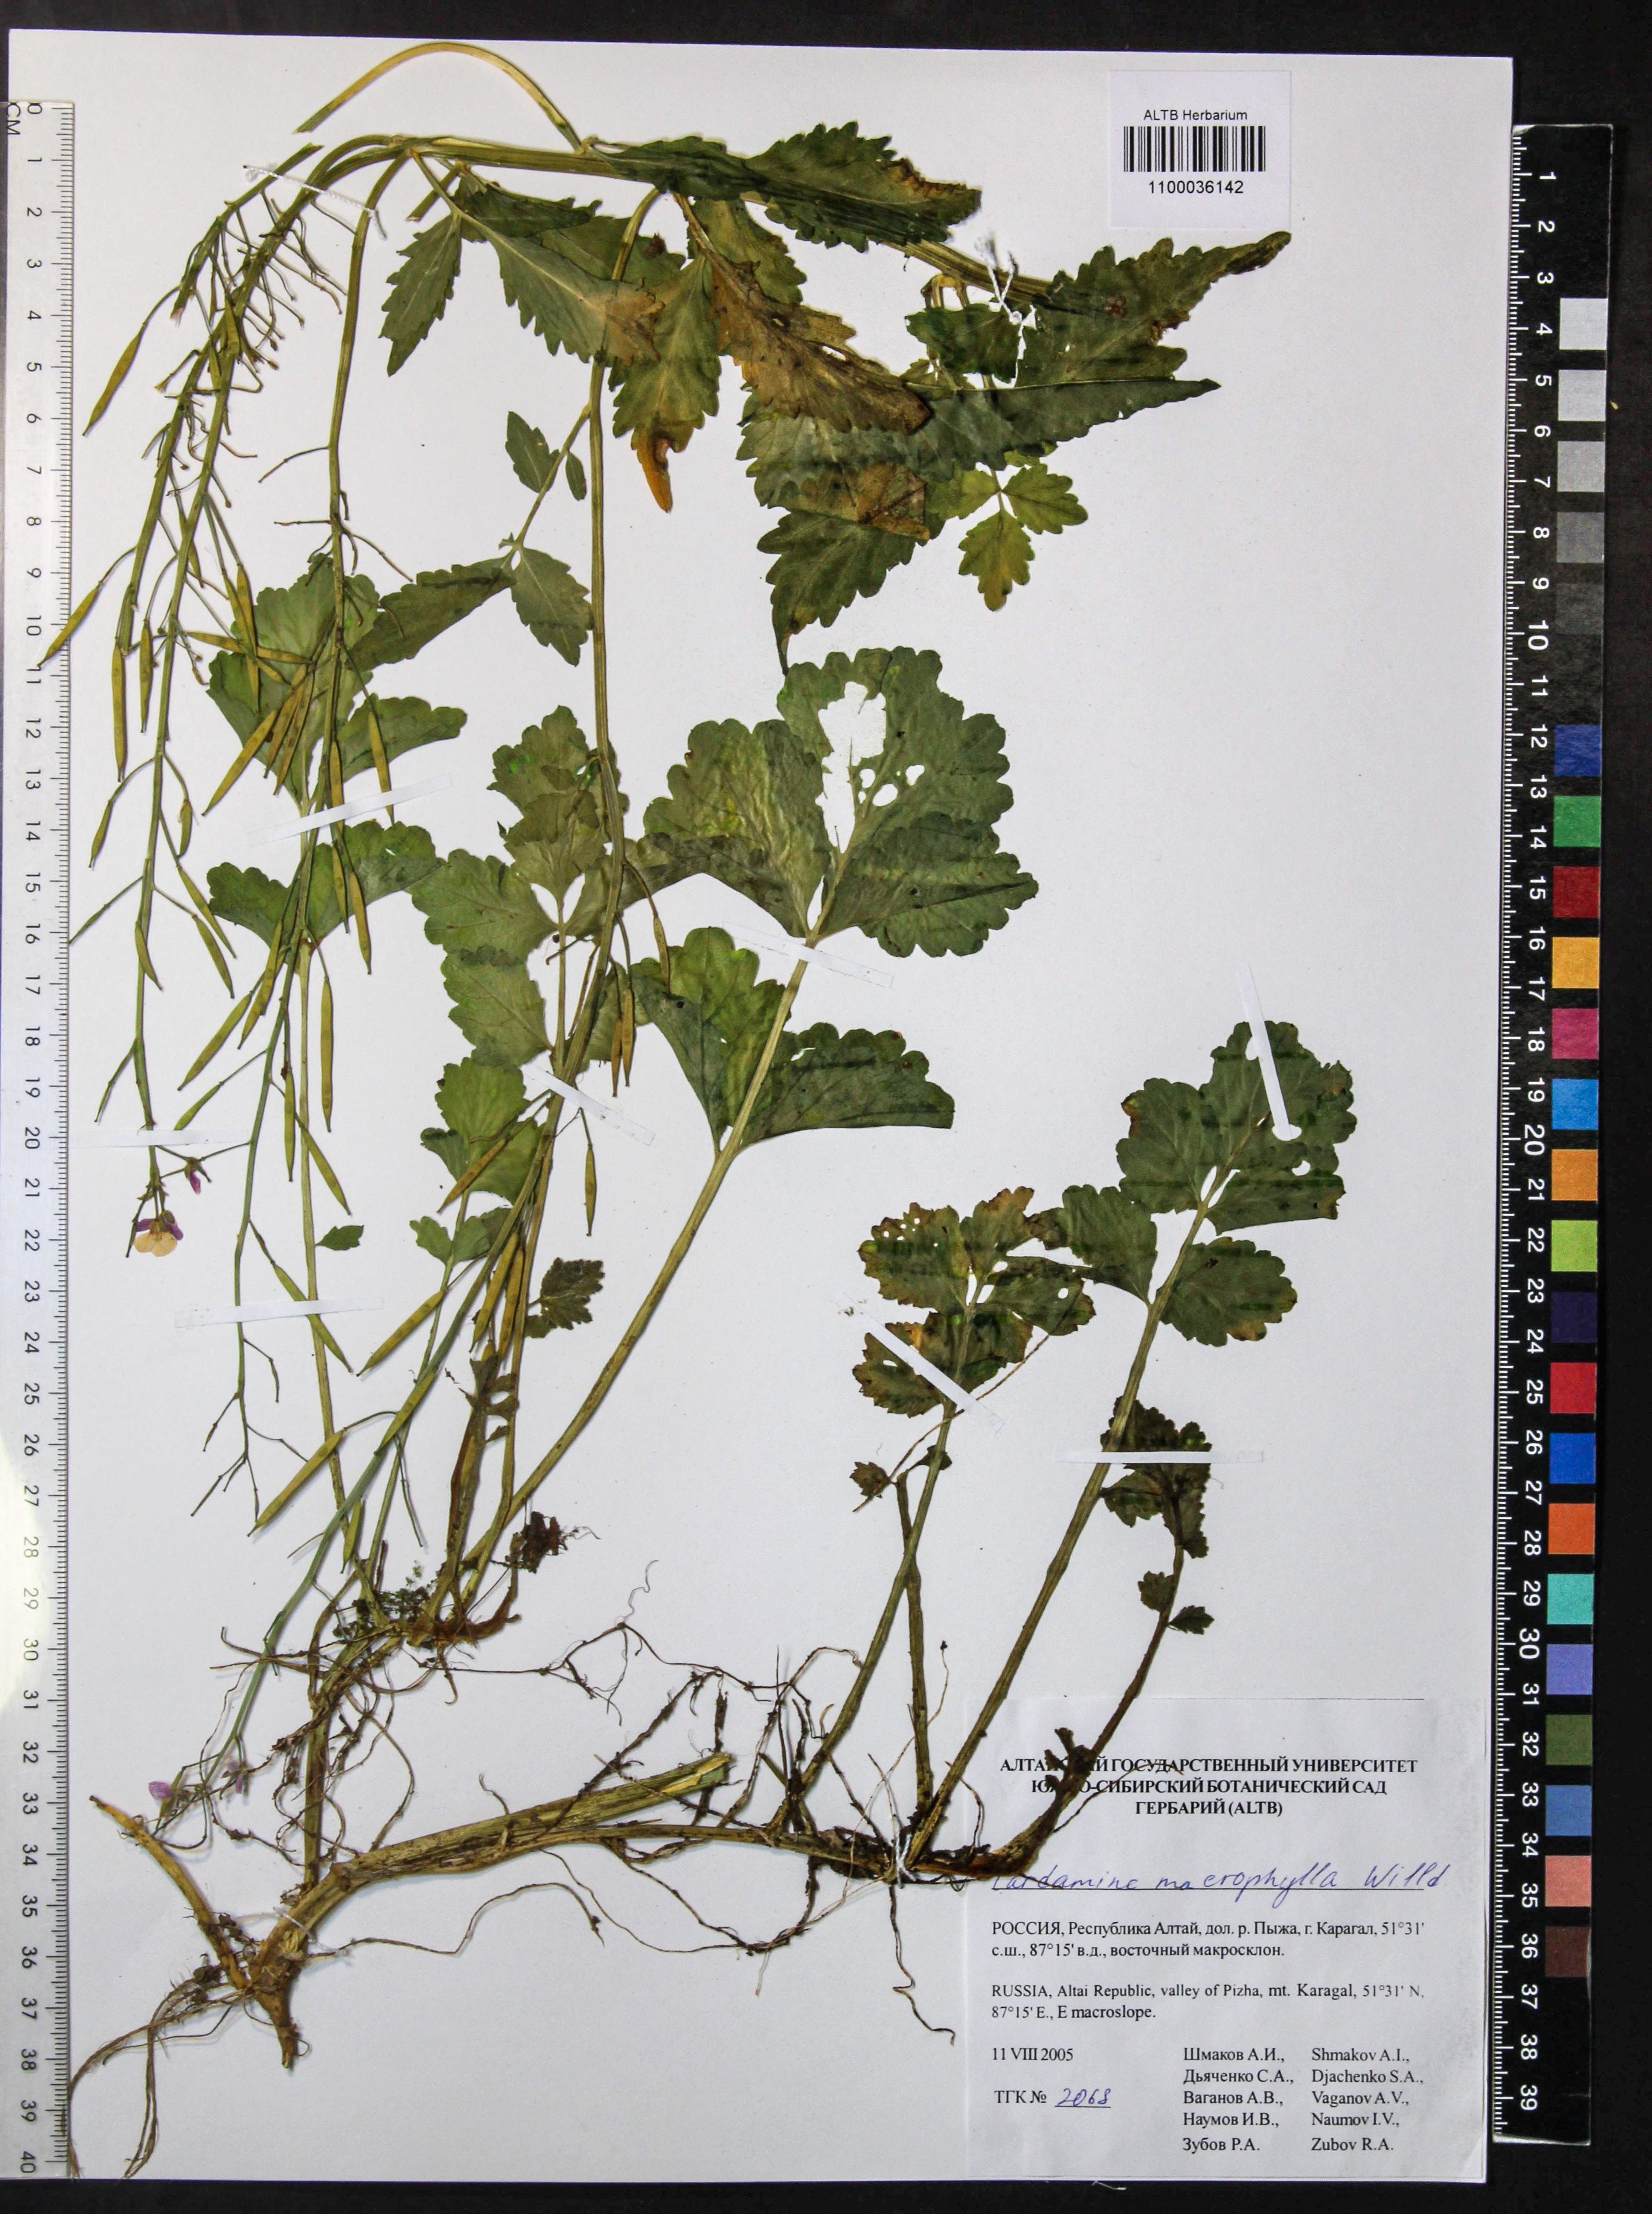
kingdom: Plantae
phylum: Tracheophyta
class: Magnoliopsida
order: Brassicales
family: Brassicaceae
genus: Cardamine
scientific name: Cardamine macrophylla
